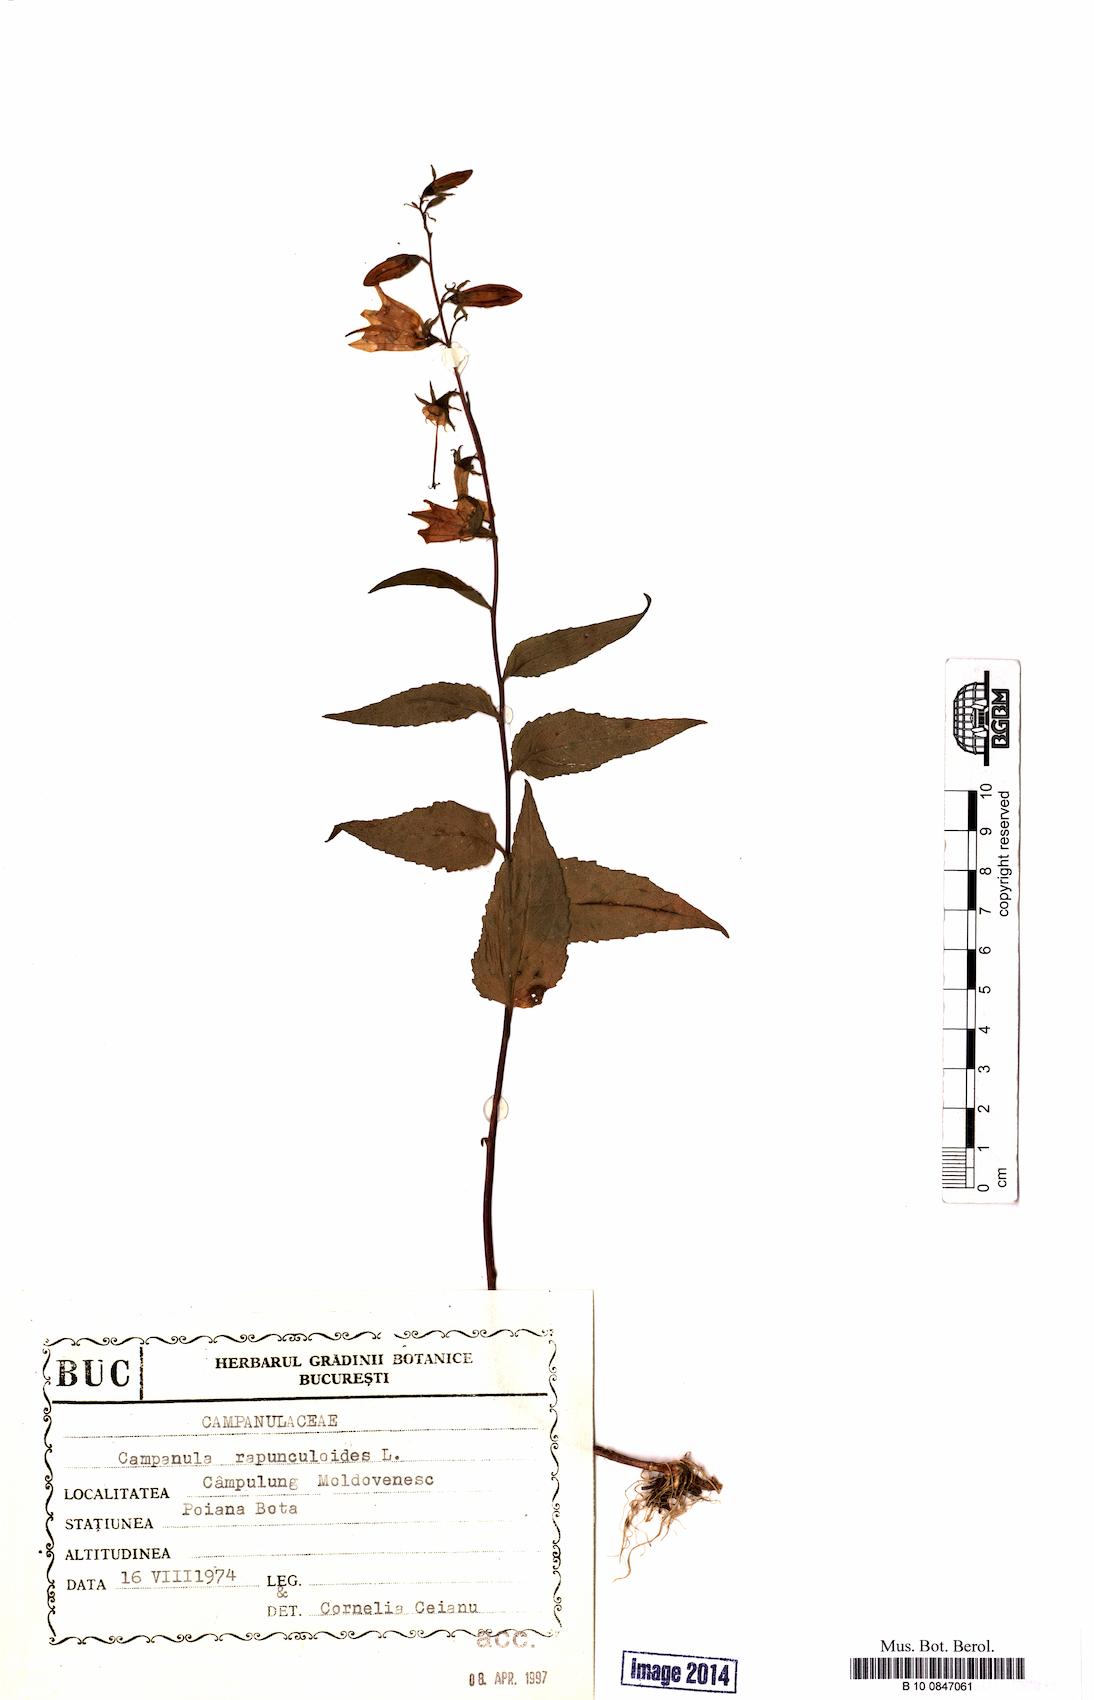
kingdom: Plantae
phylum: Tracheophyta
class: Magnoliopsida
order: Asterales
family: Campanulaceae
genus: Campanula
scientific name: Campanula rapunculoides
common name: Creeping bellflower
